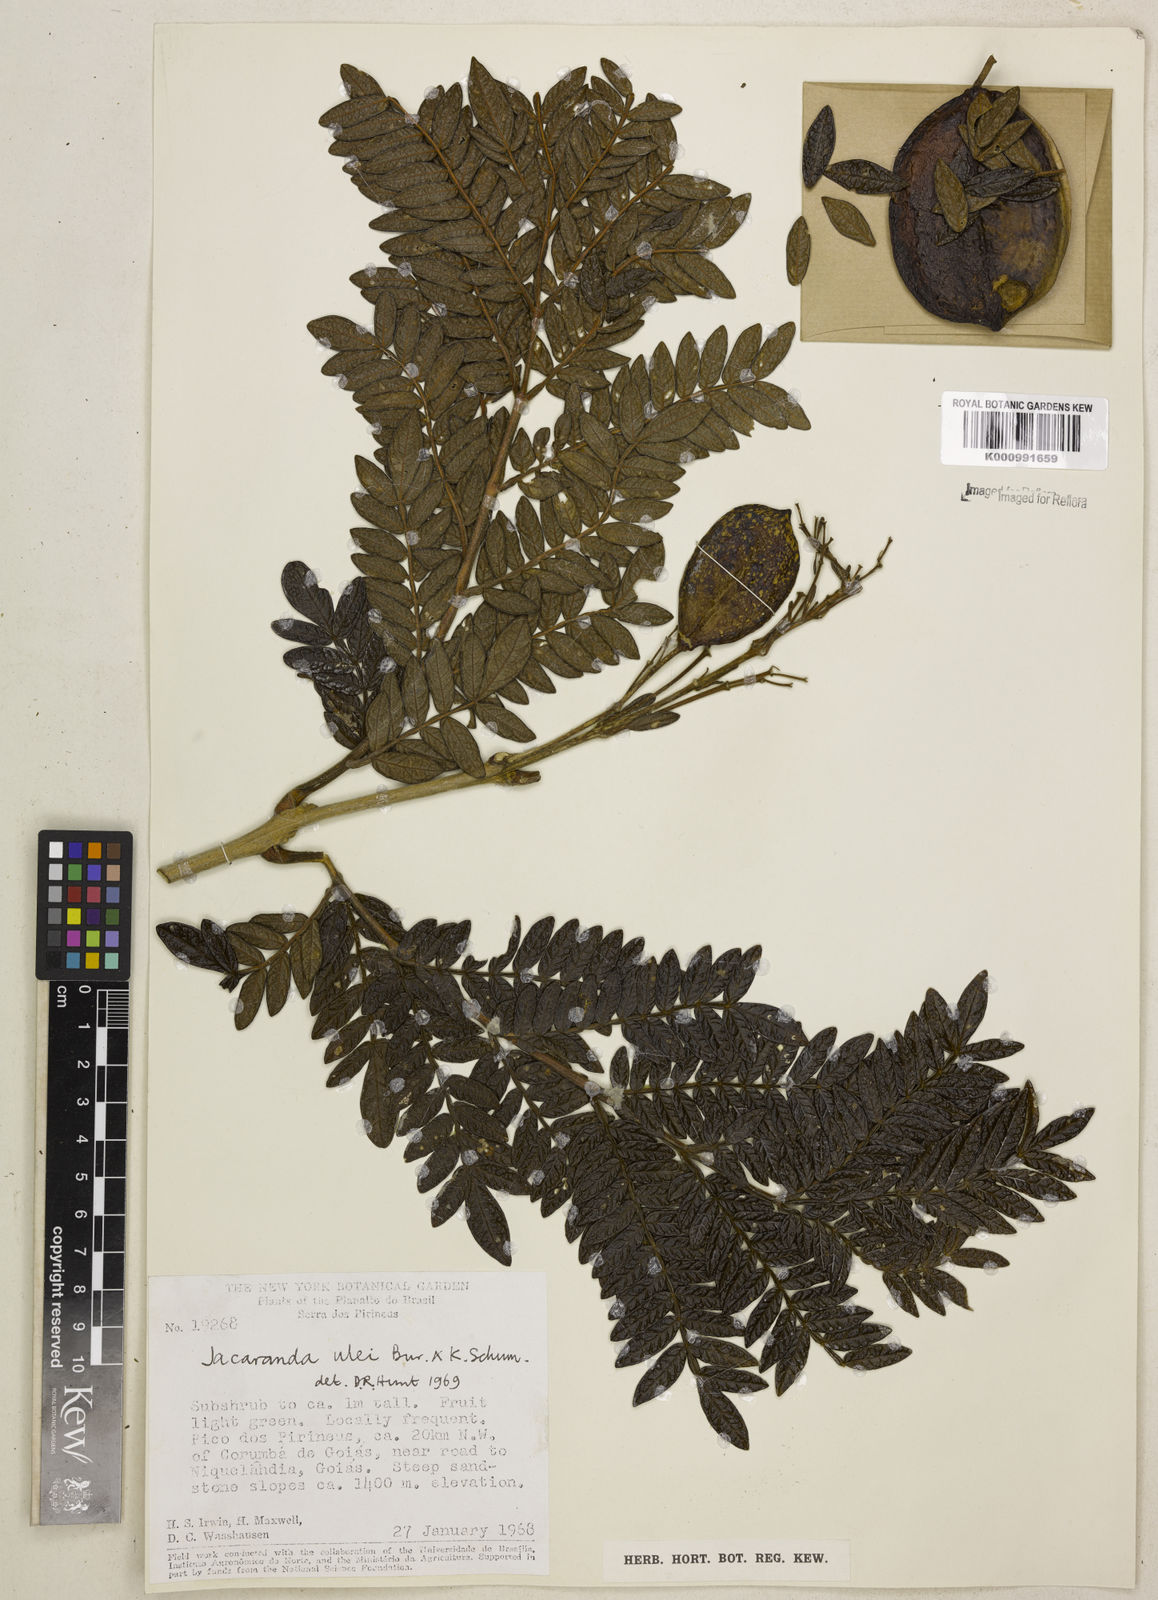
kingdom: Plantae
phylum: Tracheophyta
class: Magnoliopsida
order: Lamiales
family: Bignoniaceae
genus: Jacaranda
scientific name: Jacaranda ulei
